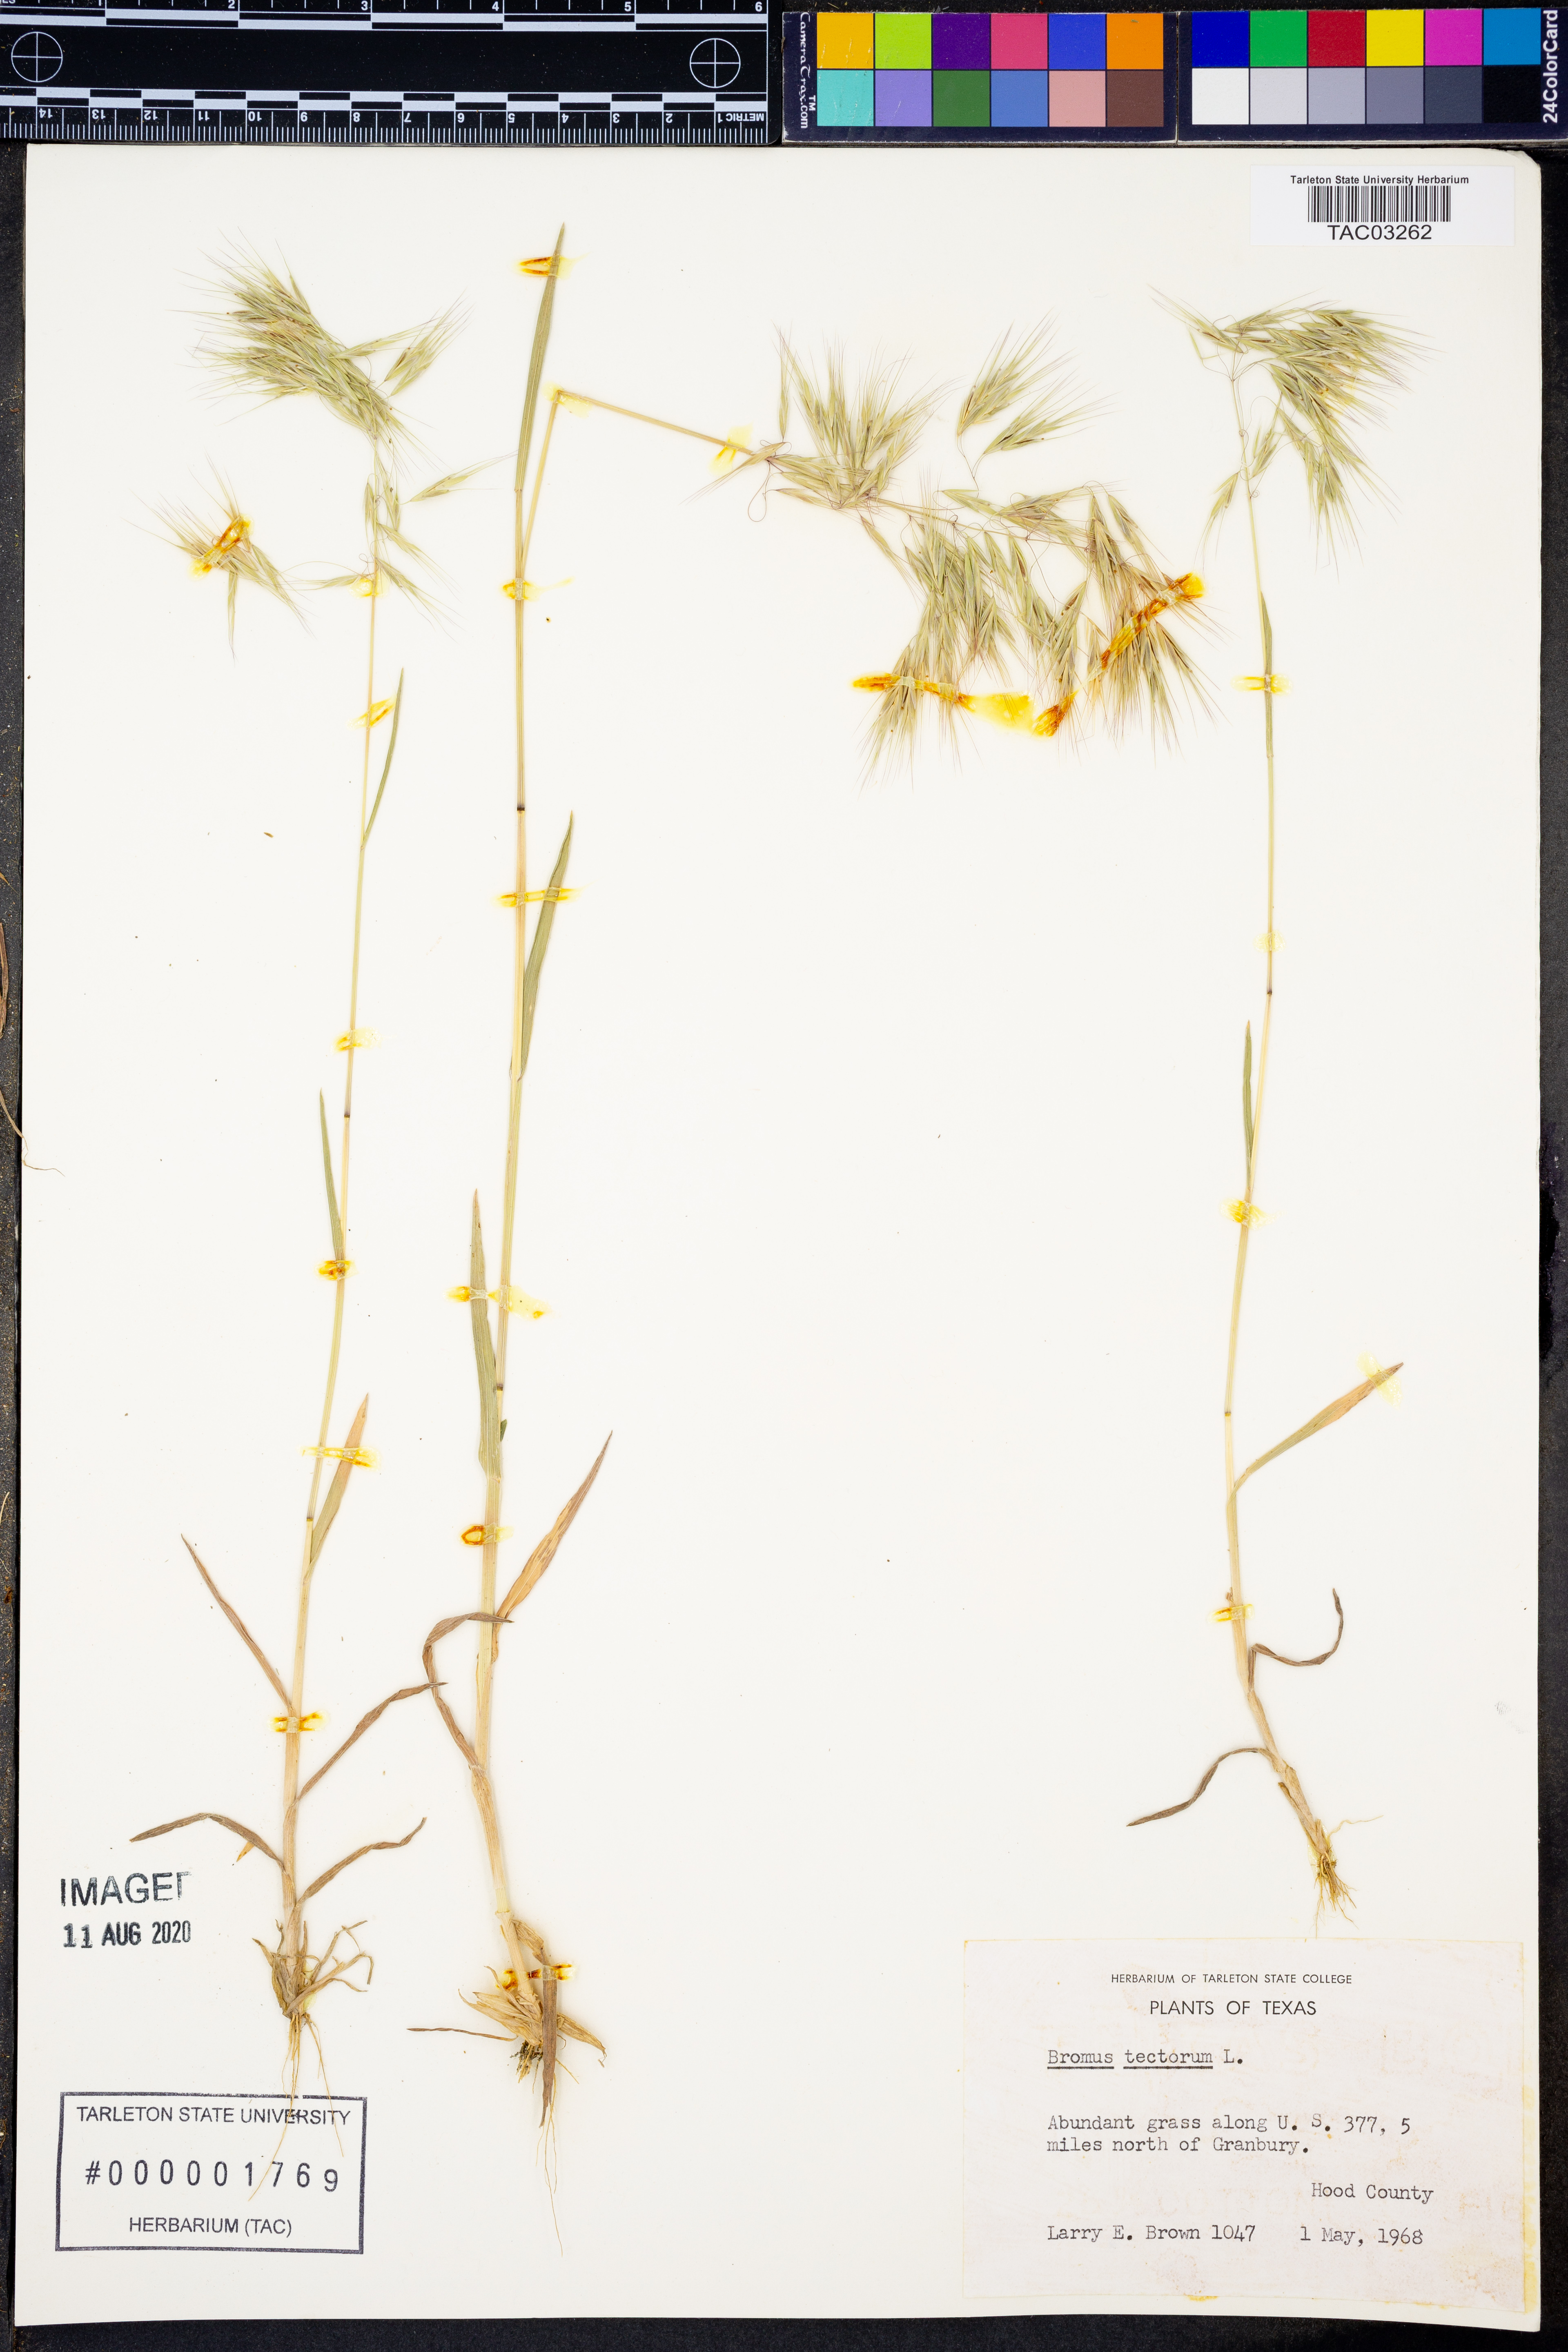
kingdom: Plantae
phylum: Tracheophyta
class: Liliopsida
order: Poales
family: Poaceae
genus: Bromus
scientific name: Bromus tectorum
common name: Cheatgrass
